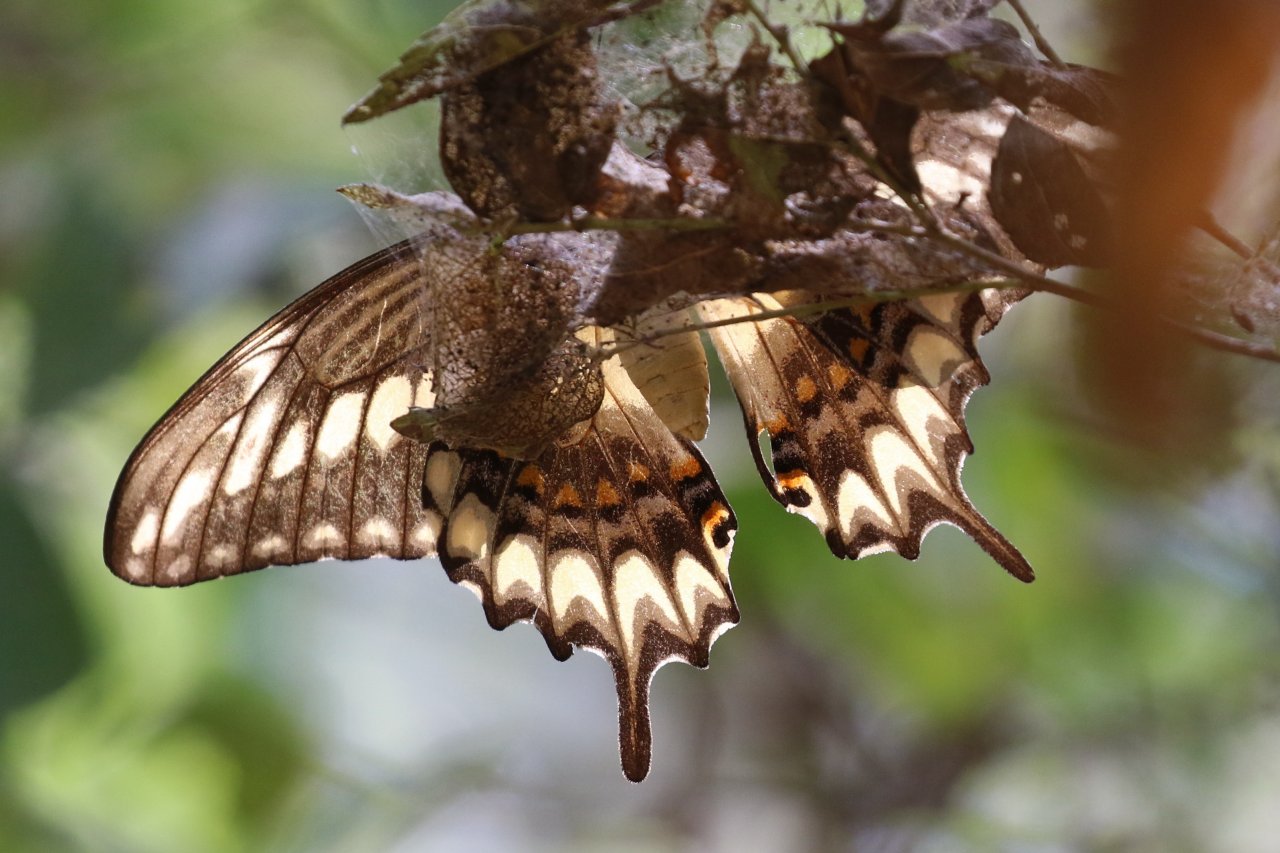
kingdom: Animalia
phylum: Arthropoda
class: Insecta
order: Lepidoptera
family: Papilionidae
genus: Papilio
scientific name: Papilio ornythion
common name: Ornythion Swallowtail
